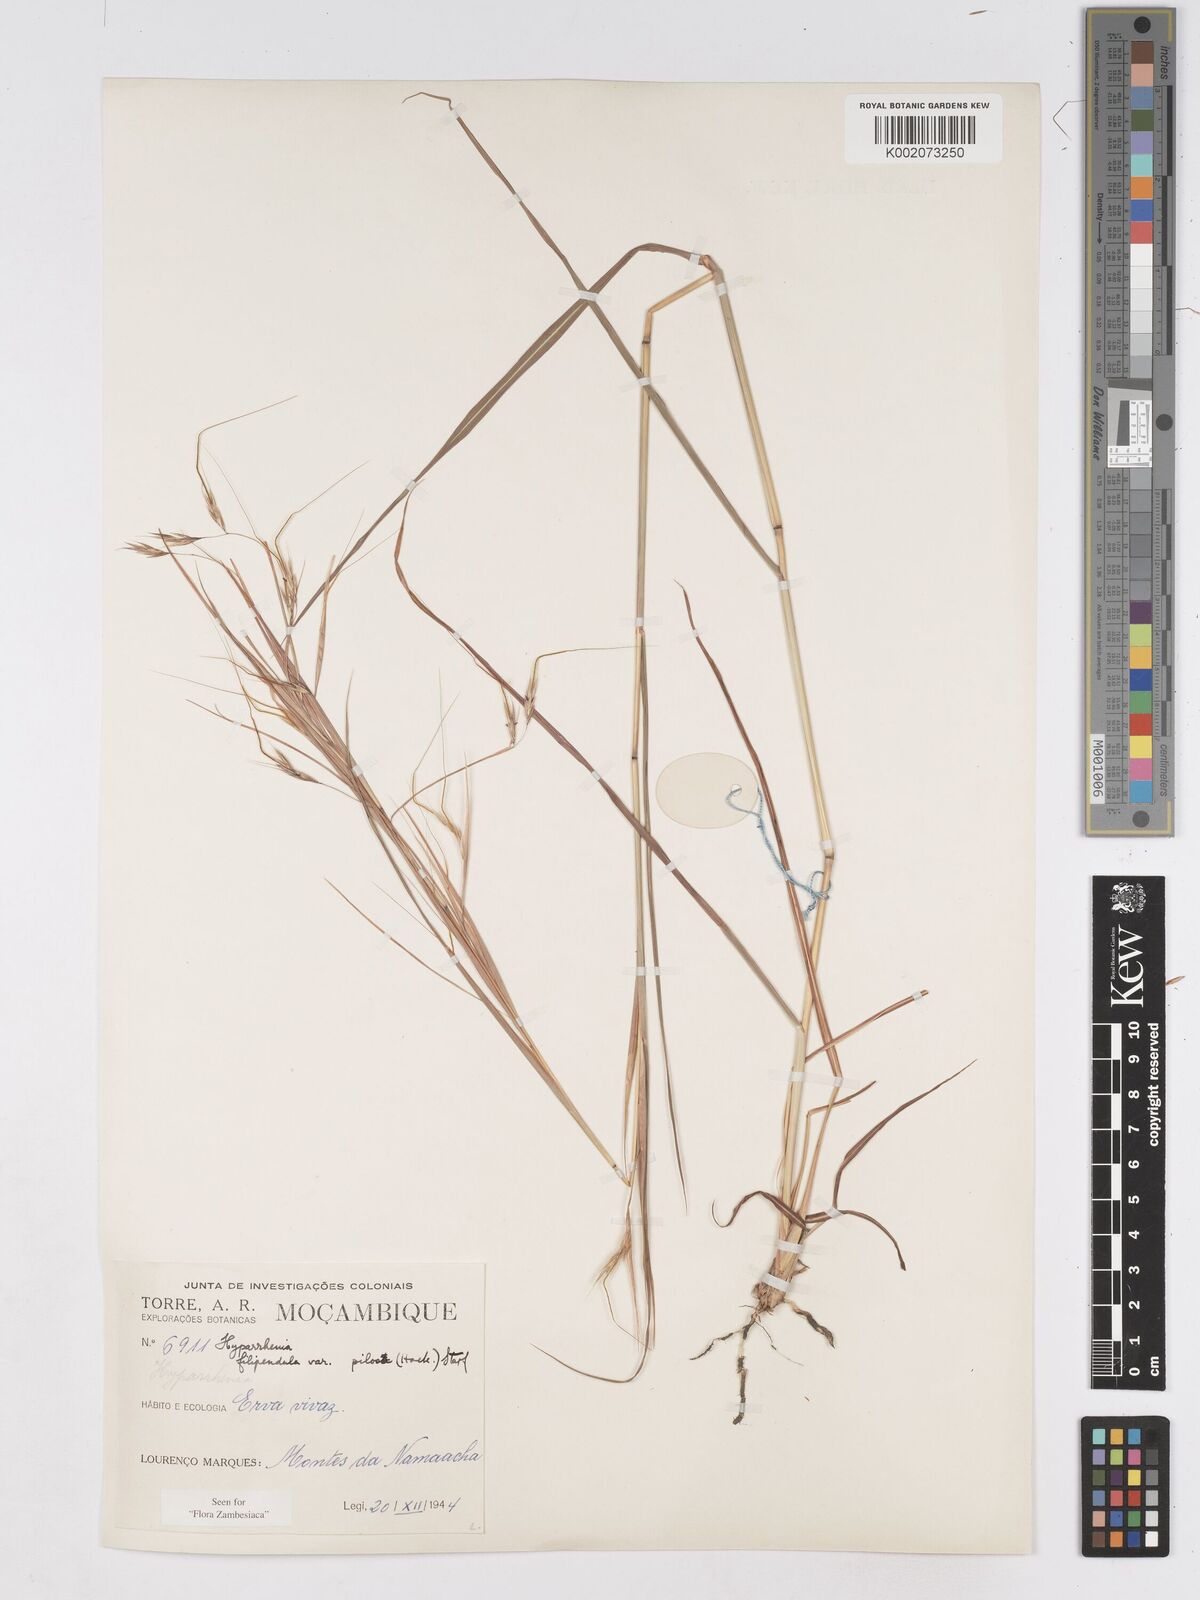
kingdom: Plantae
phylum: Tracheophyta
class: Liliopsida
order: Poales
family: Poaceae
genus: Hyparrhenia
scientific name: Hyparrhenia filipendula
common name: Tambookie grass
